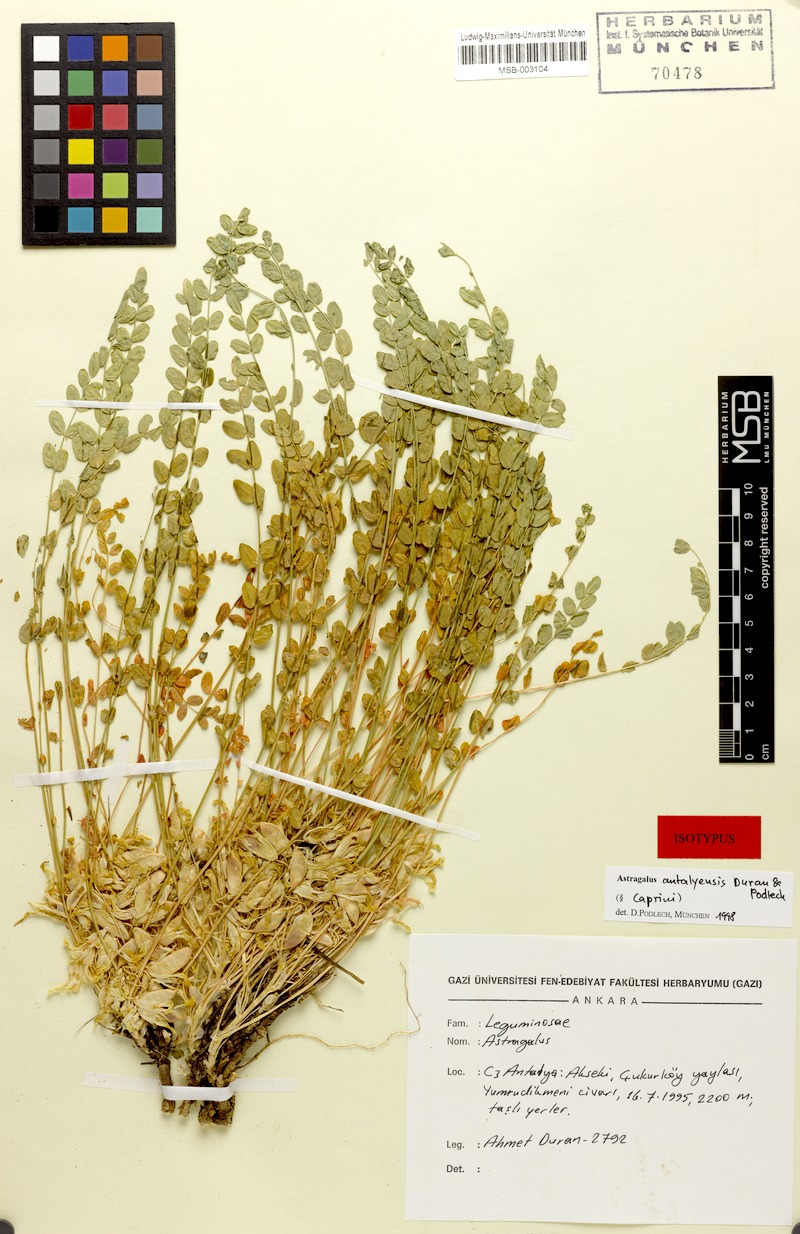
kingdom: Plantae
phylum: Tracheophyta
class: Magnoliopsida
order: Fabales
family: Fabaceae
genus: Astragalus
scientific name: Astragalus antalyensis
